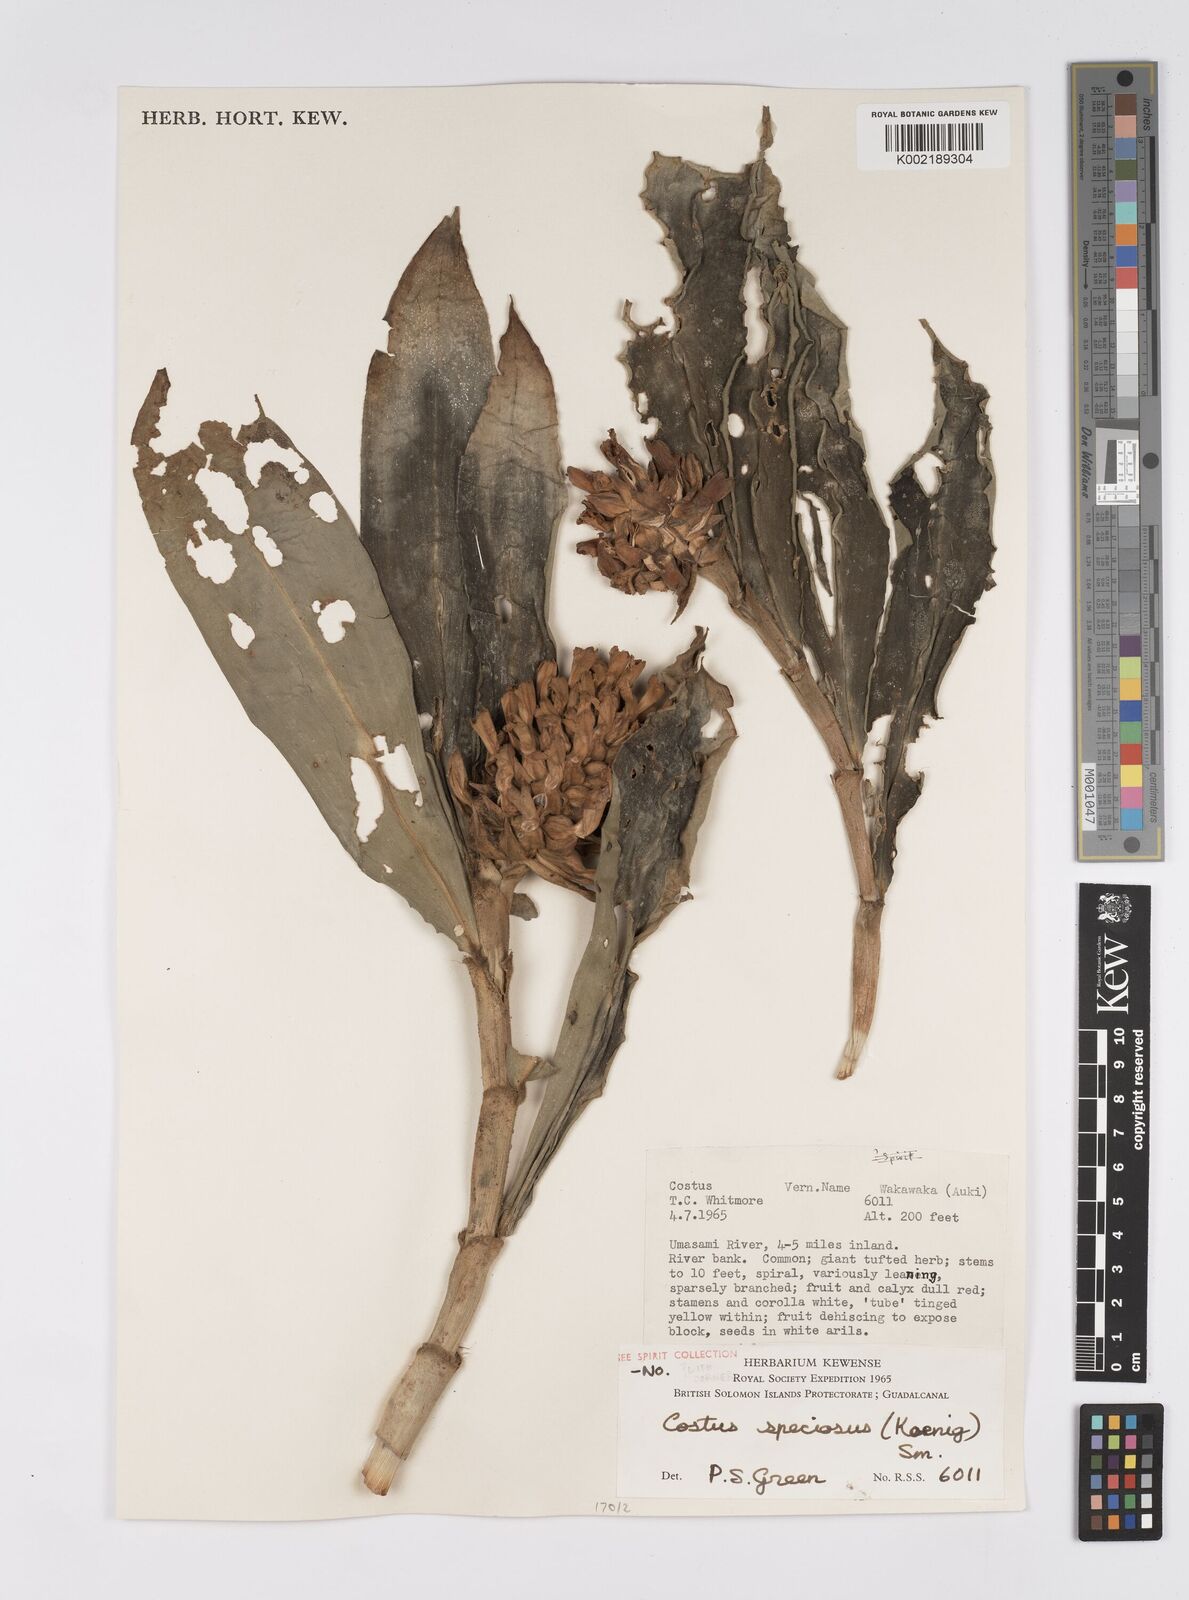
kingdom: Plantae
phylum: Tracheophyta
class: Liliopsida
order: Zingiberales
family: Costaceae
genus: Hellenia
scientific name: Hellenia speciosa
